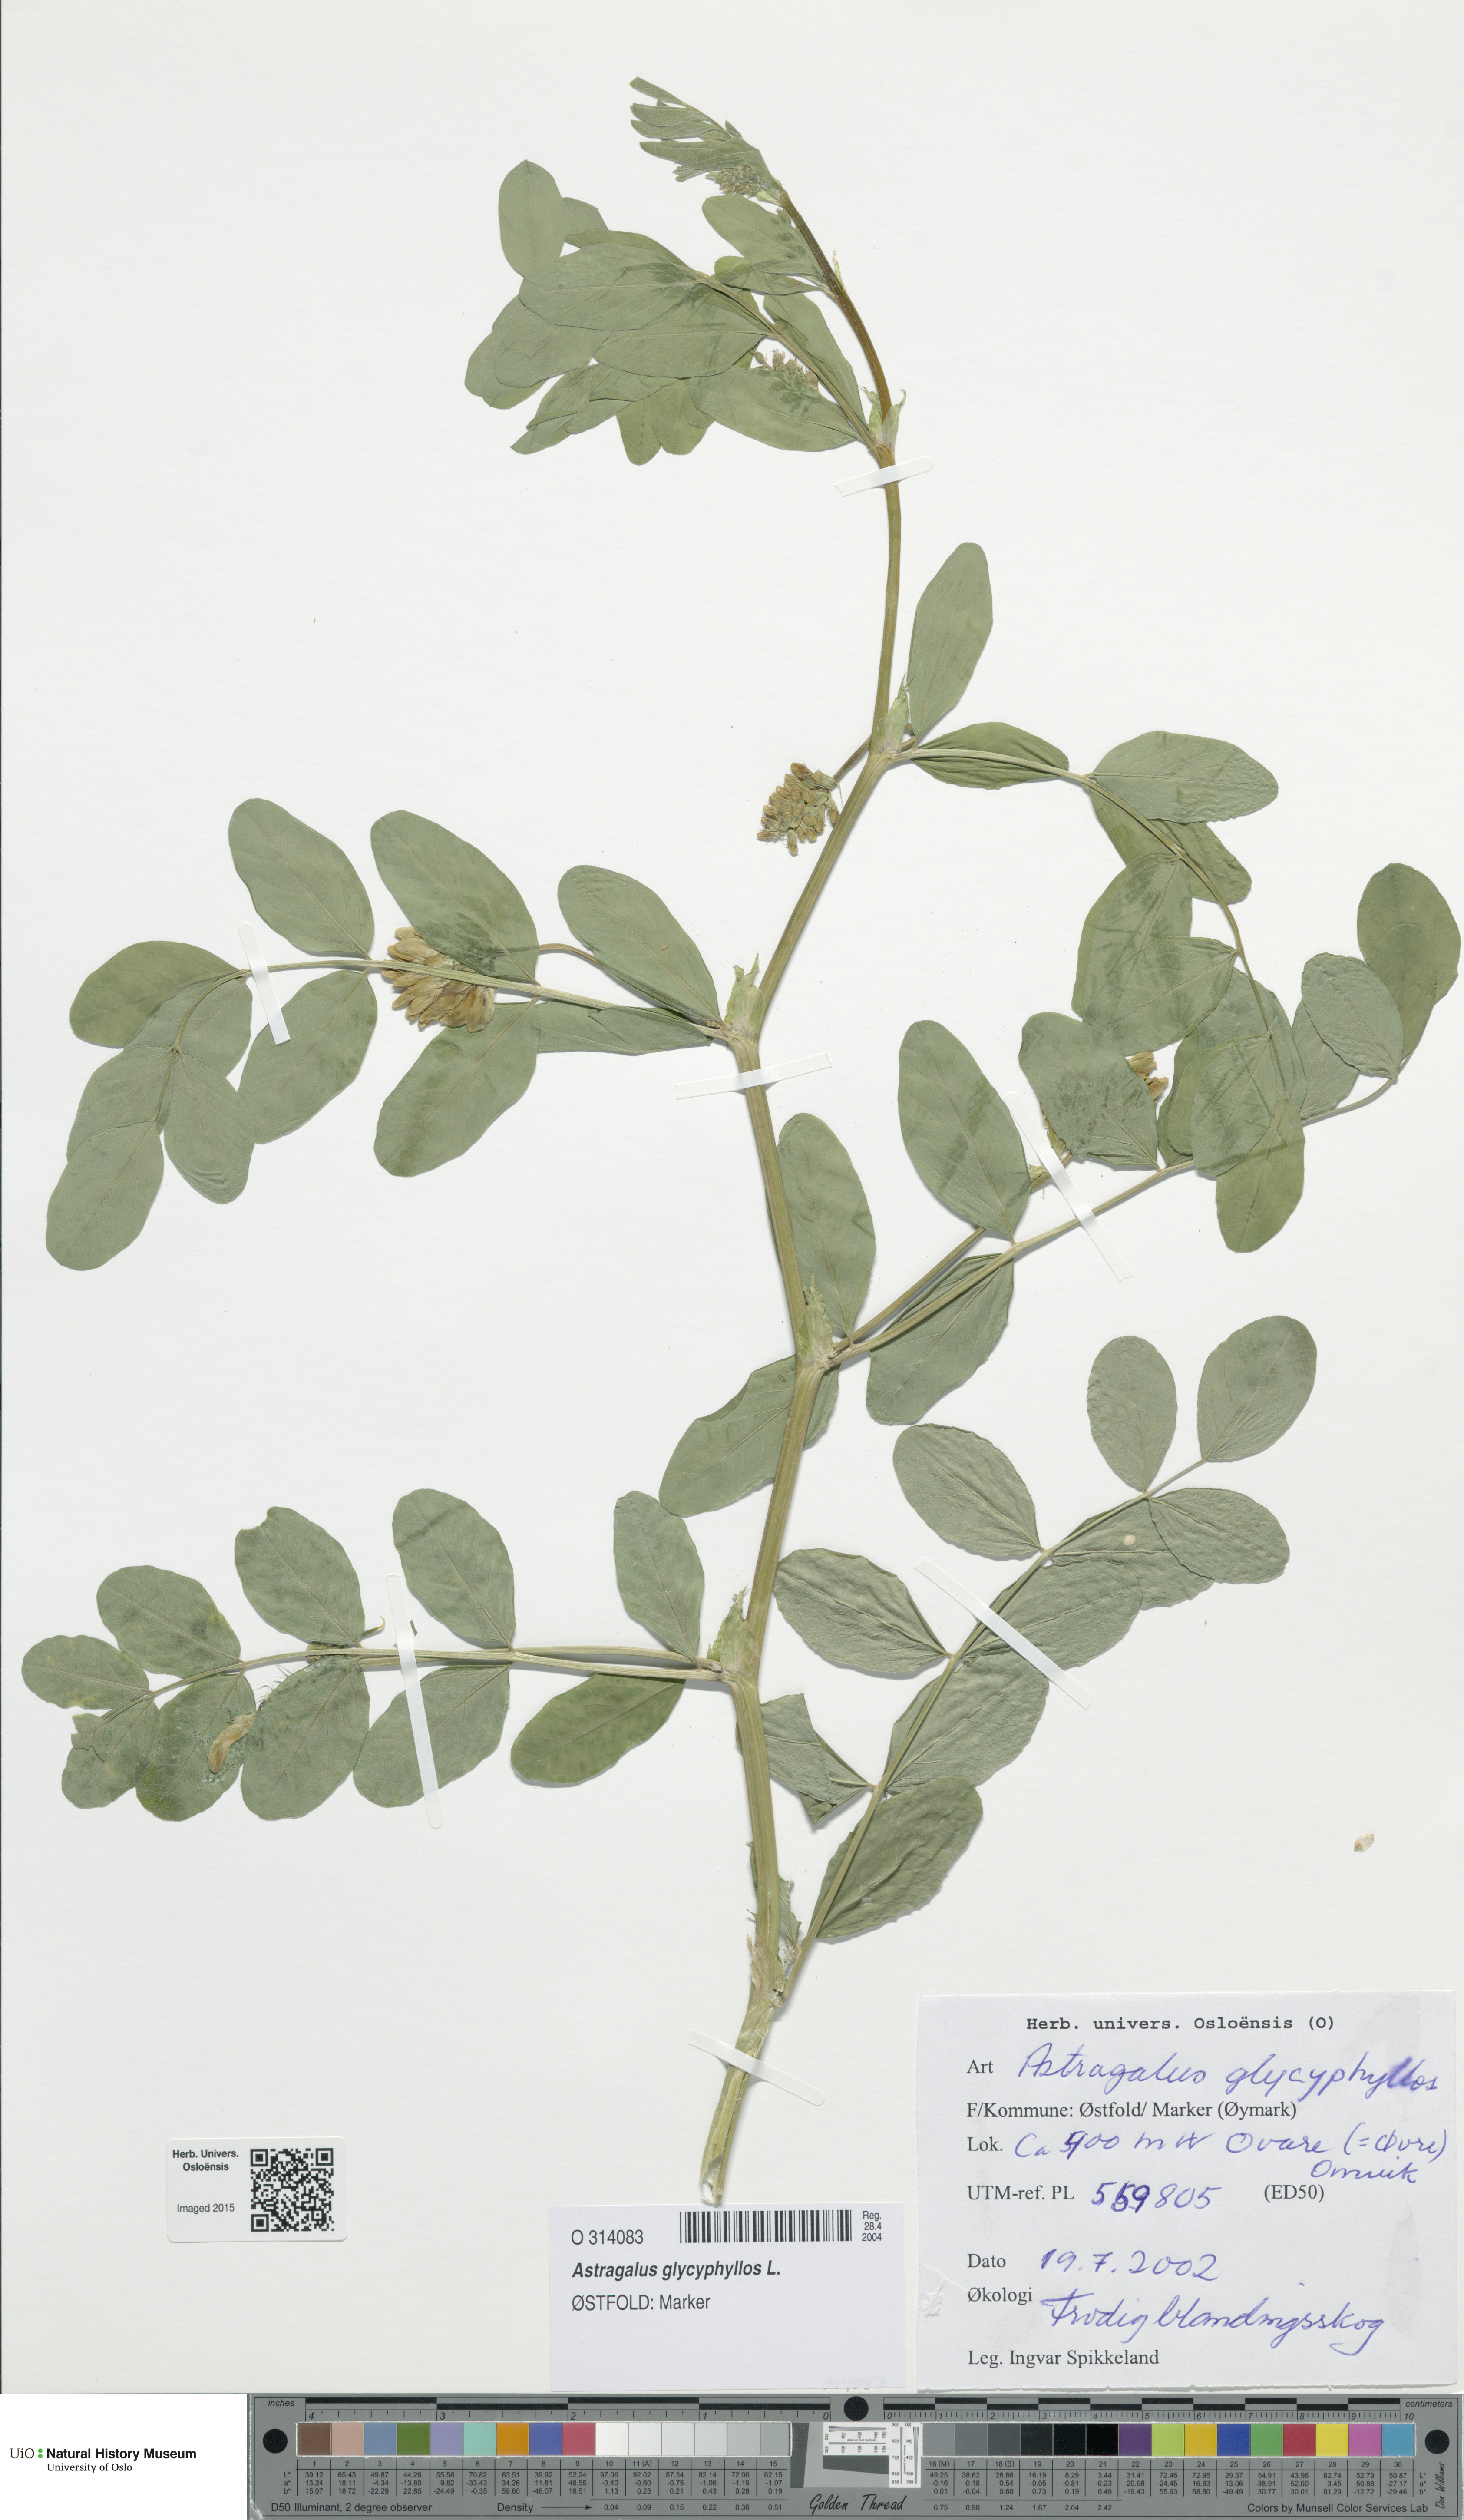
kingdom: Plantae
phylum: Tracheophyta
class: Magnoliopsida
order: Fabales
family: Fabaceae
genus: Astragalus
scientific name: Astragalus glycyphyllos
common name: Wild liquorice
